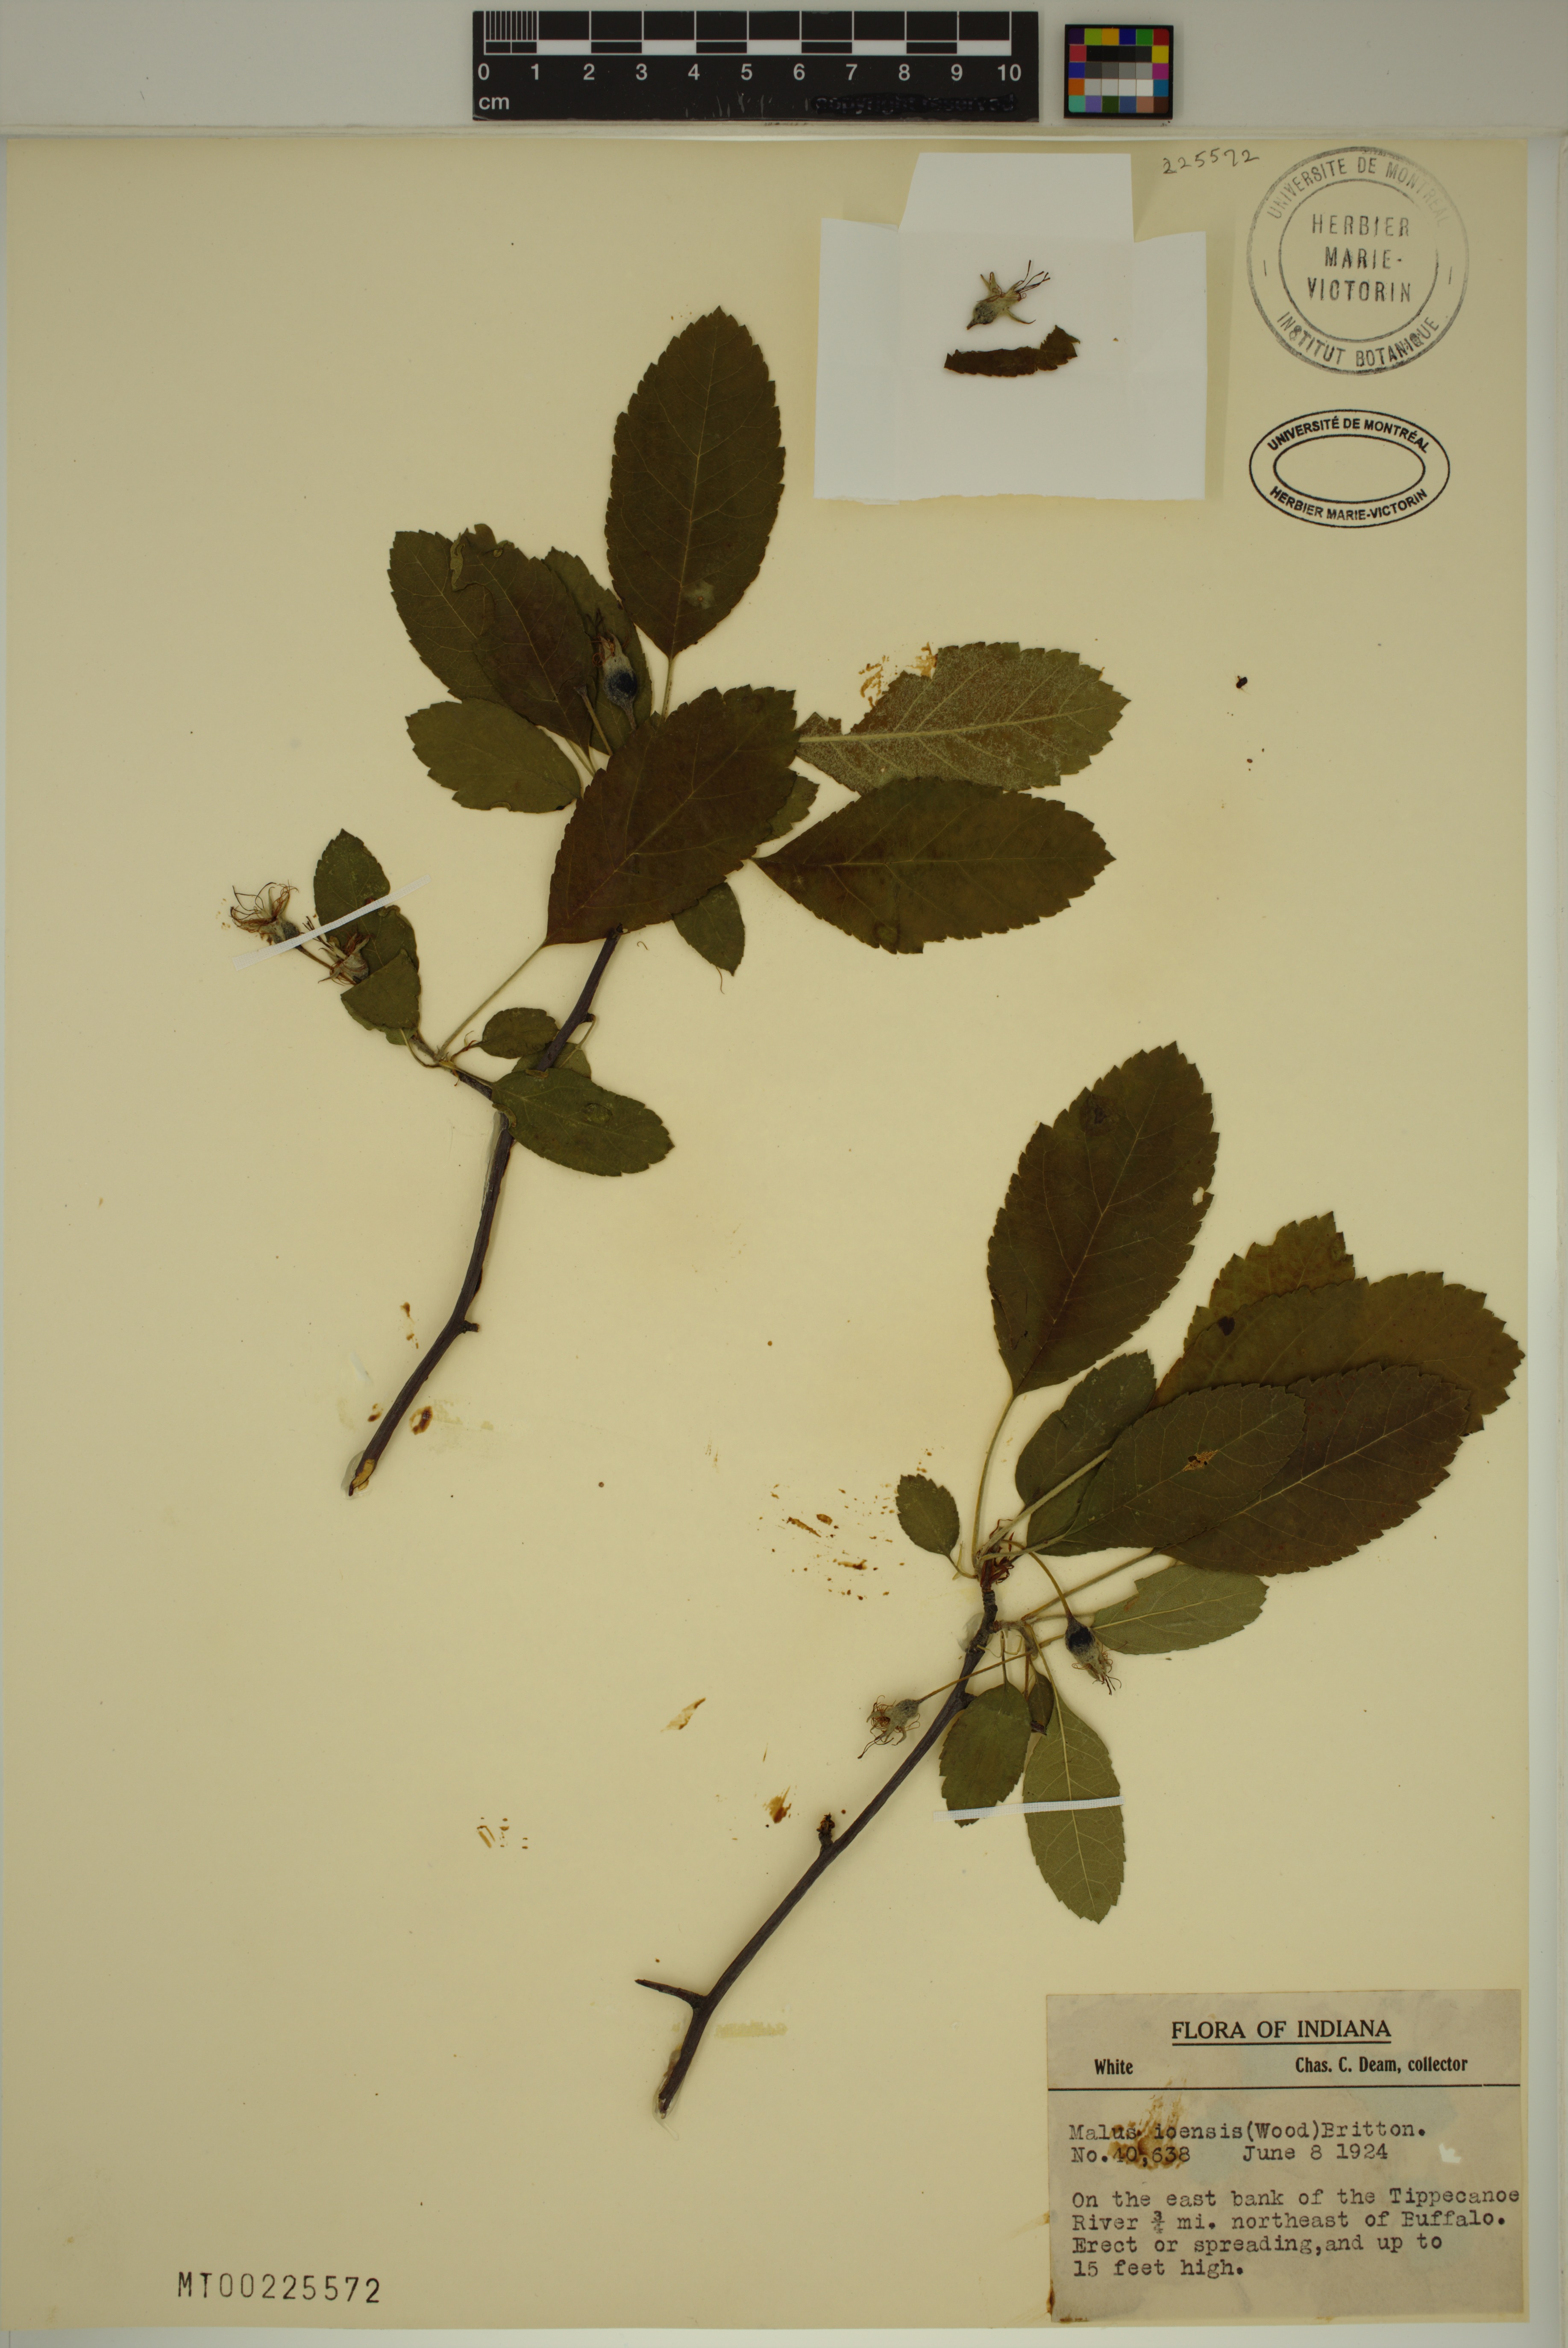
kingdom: Plantae
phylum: Tracheophyta
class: Magnoliopsida
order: Rosales
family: Rosaceae
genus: Malus
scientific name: Malus ioensis
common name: Iowa crab apple
